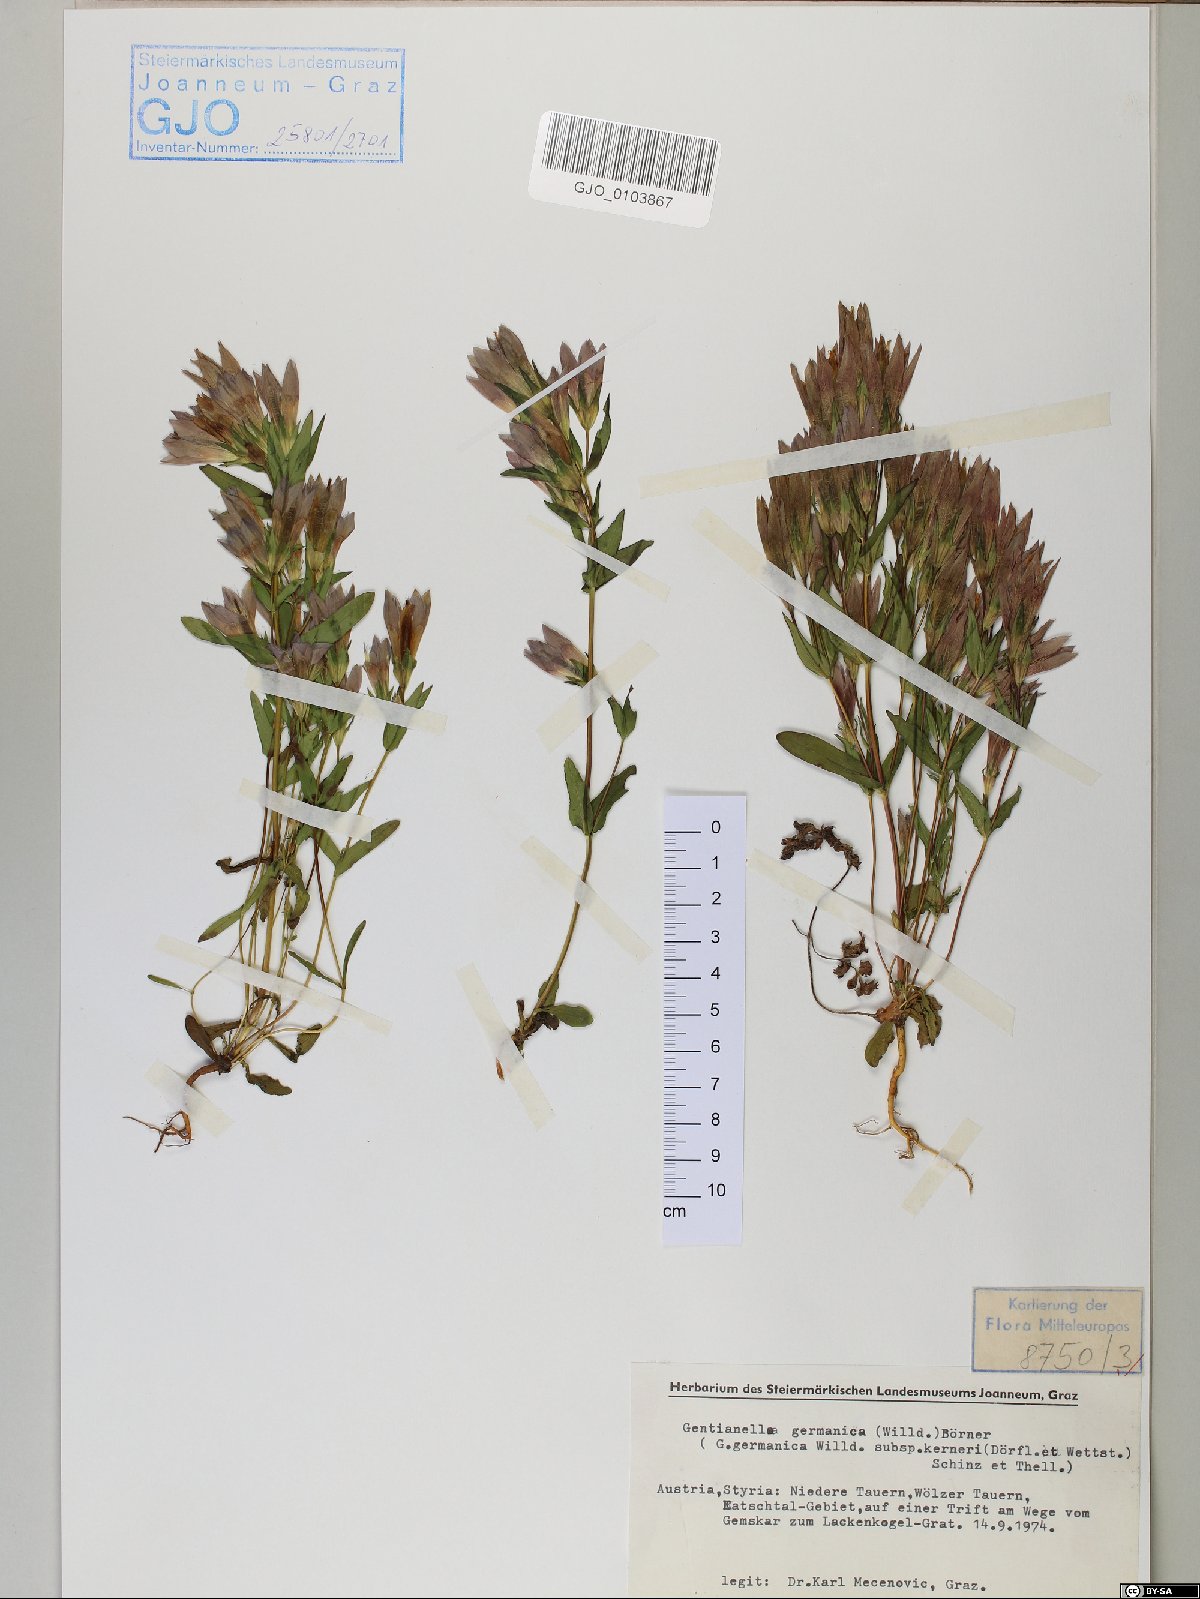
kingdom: Plantae
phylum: Tracheophyta
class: Magnoliopsida
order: Gentianales
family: Gentianaceae
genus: Gentianella
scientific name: Gentianella germanica
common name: Chiltern-gentian
